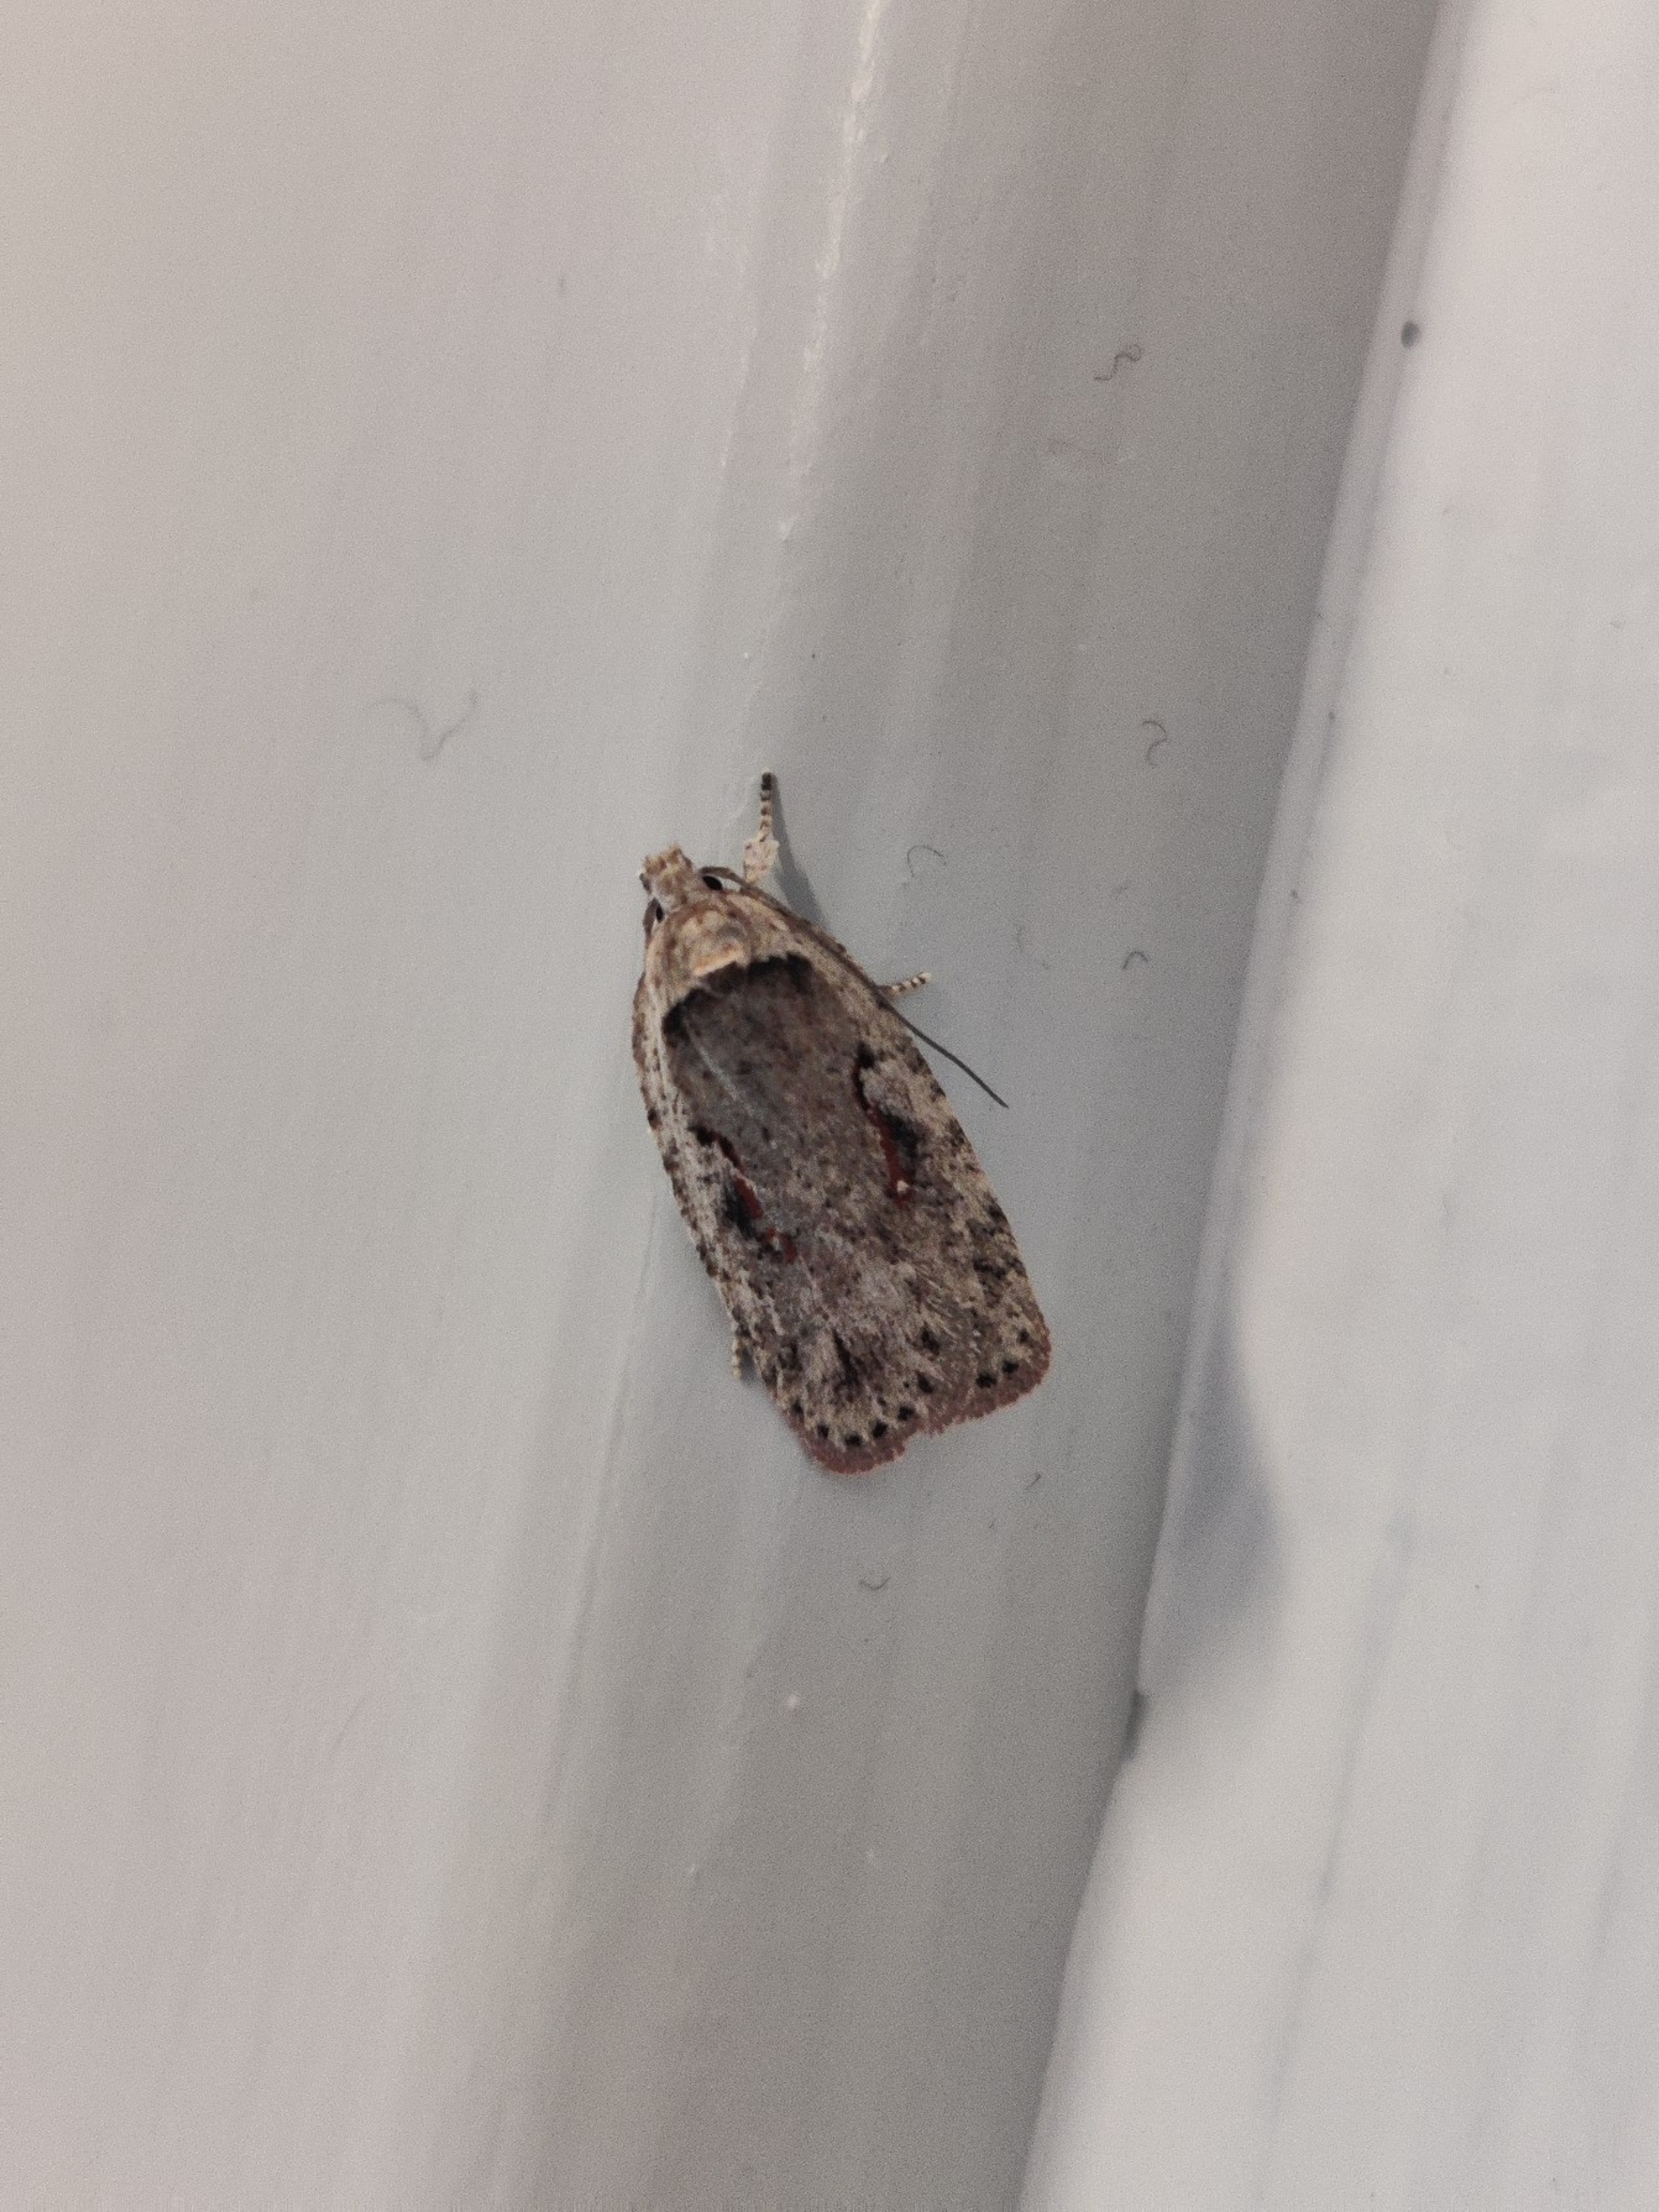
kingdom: Animalia
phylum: Arthropoda
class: Insecta
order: Lepidoptera
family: Depressariidae
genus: Agonopterix
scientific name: Agonopterix ocellana
